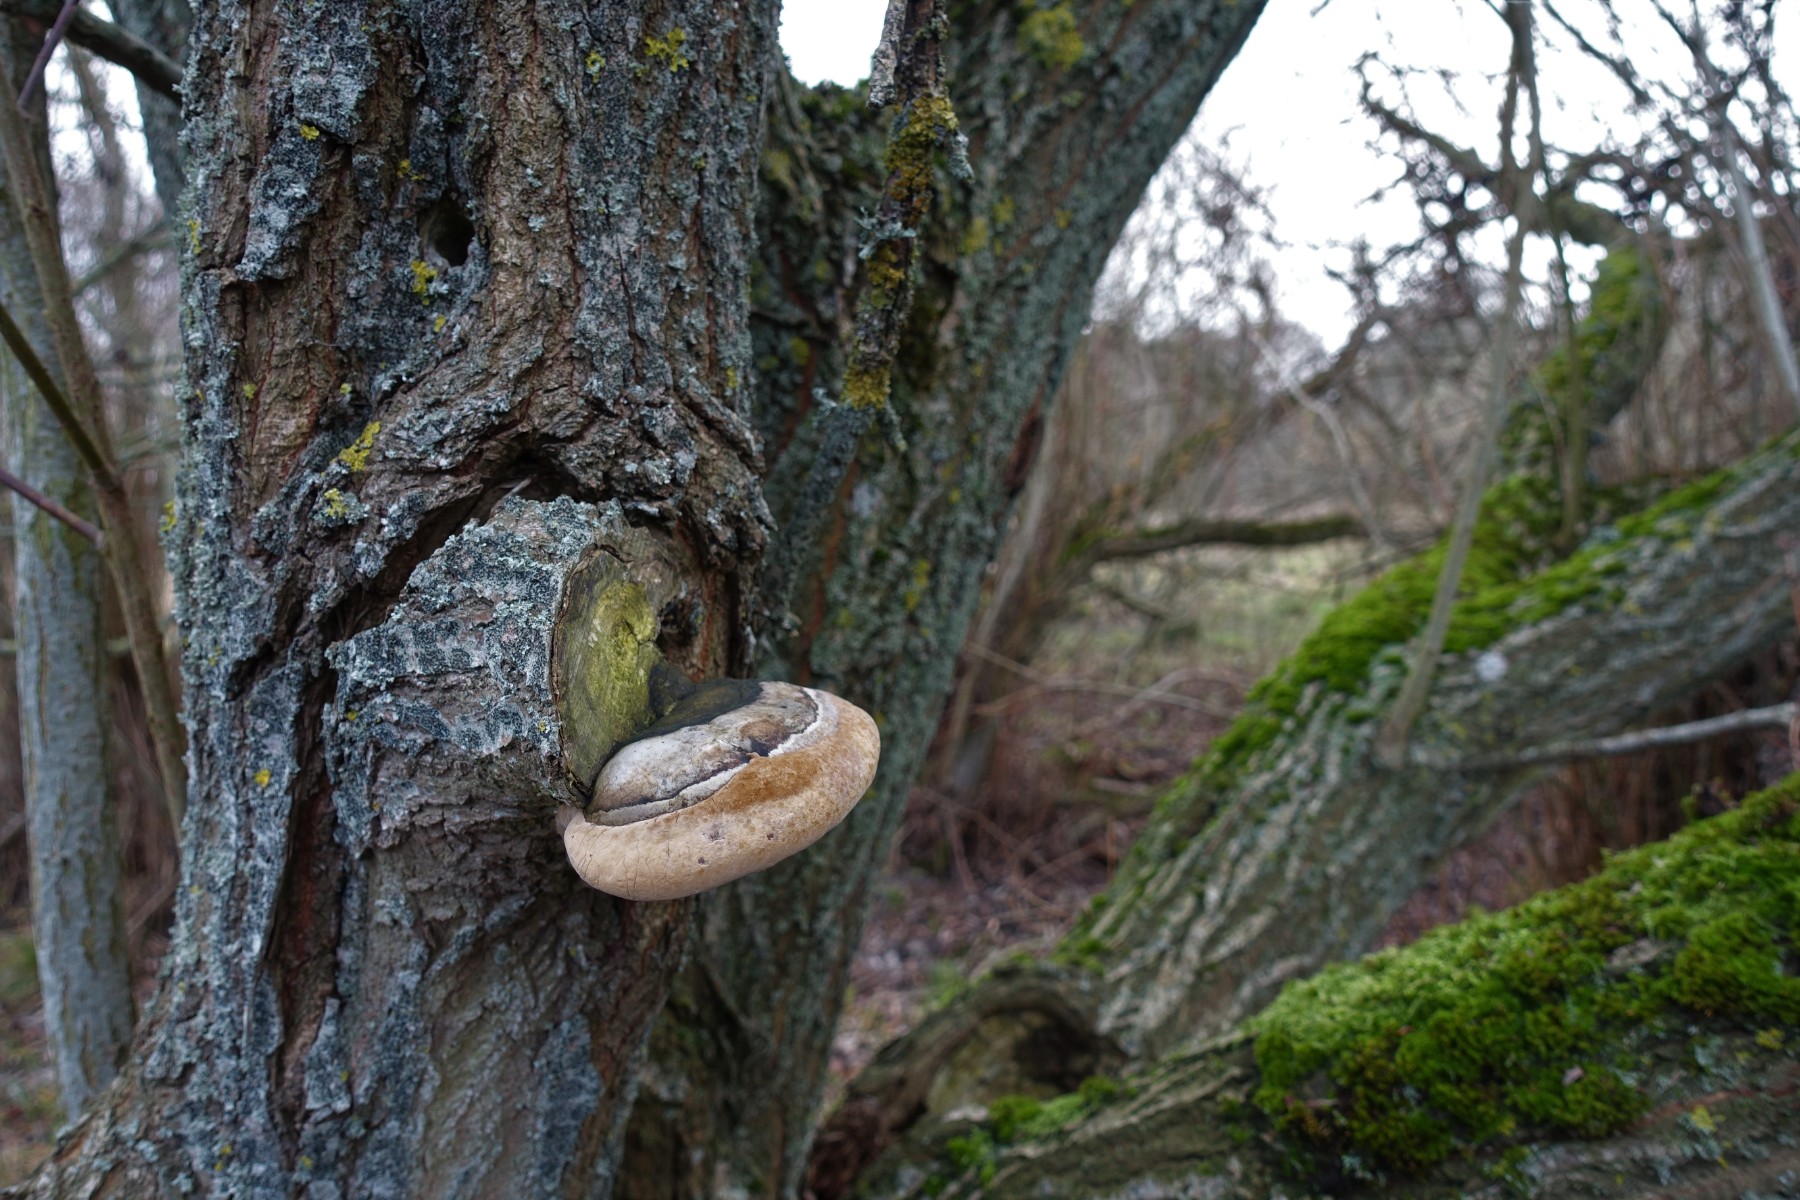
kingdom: Fungi
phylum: Basidiomycota
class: Agaricomycetes
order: Hymenochaetales
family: Hymenochaetaceae
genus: Phellinus
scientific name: Phellinus igniarius
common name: almindelig ildporesvamp
